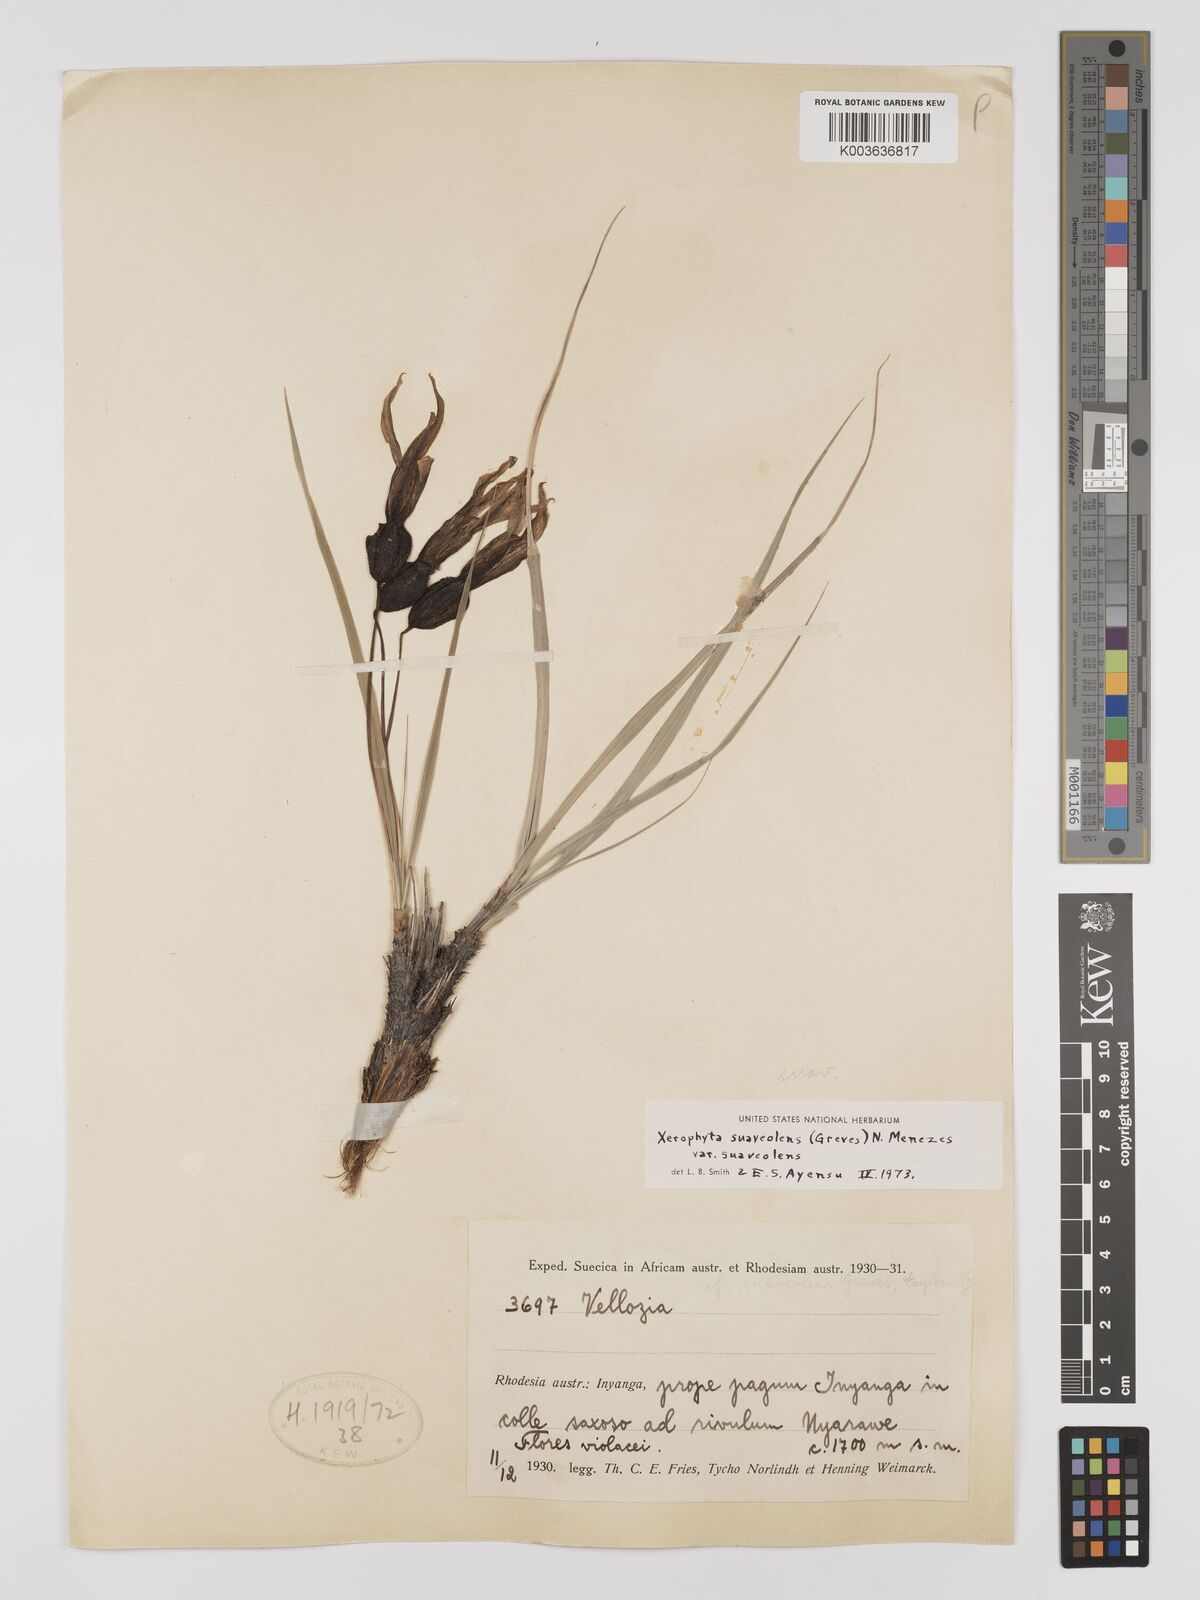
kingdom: Plantae
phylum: Tracheophyta
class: Liliopsida
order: Pandanales
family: Velloziaceae
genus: Xerophyta
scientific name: Xerophyta suaveolens
